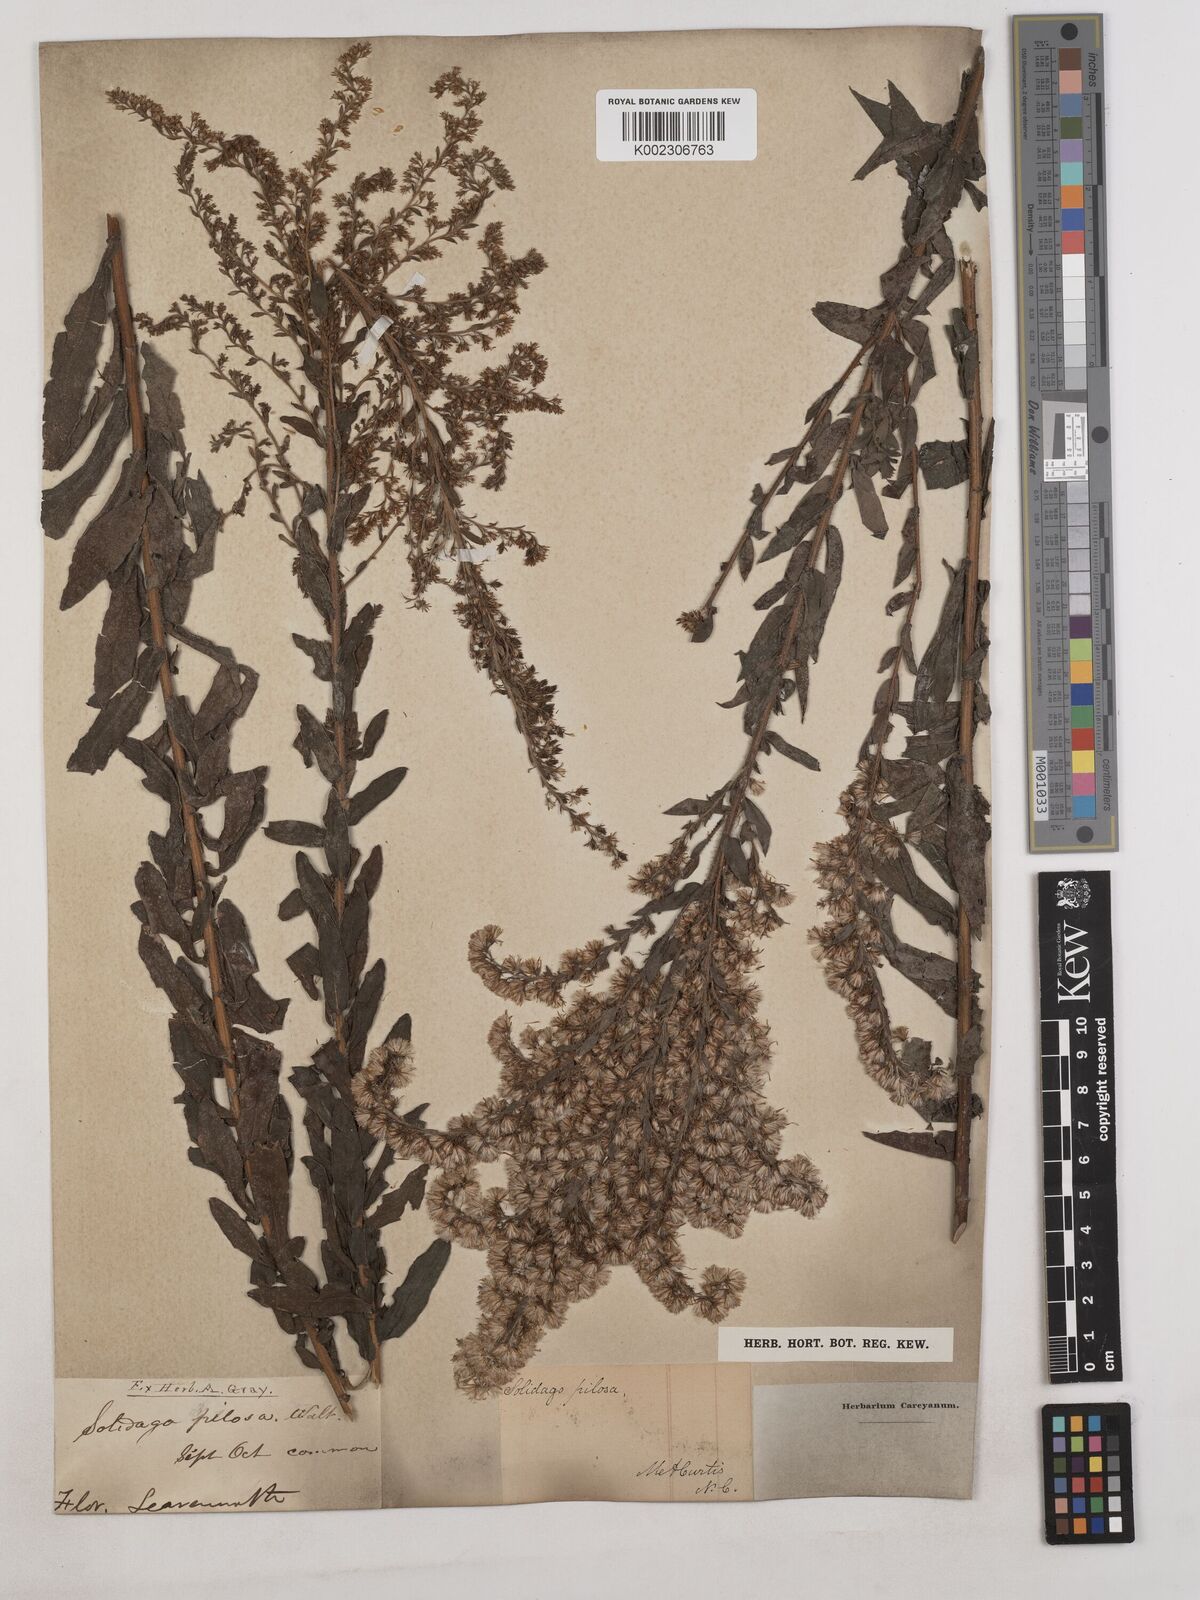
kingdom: Plantae
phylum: Tracheophyta
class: Magnoliopsida
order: Asterales
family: Asteraceae
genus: Solidago
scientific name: Solidago fistulosa
